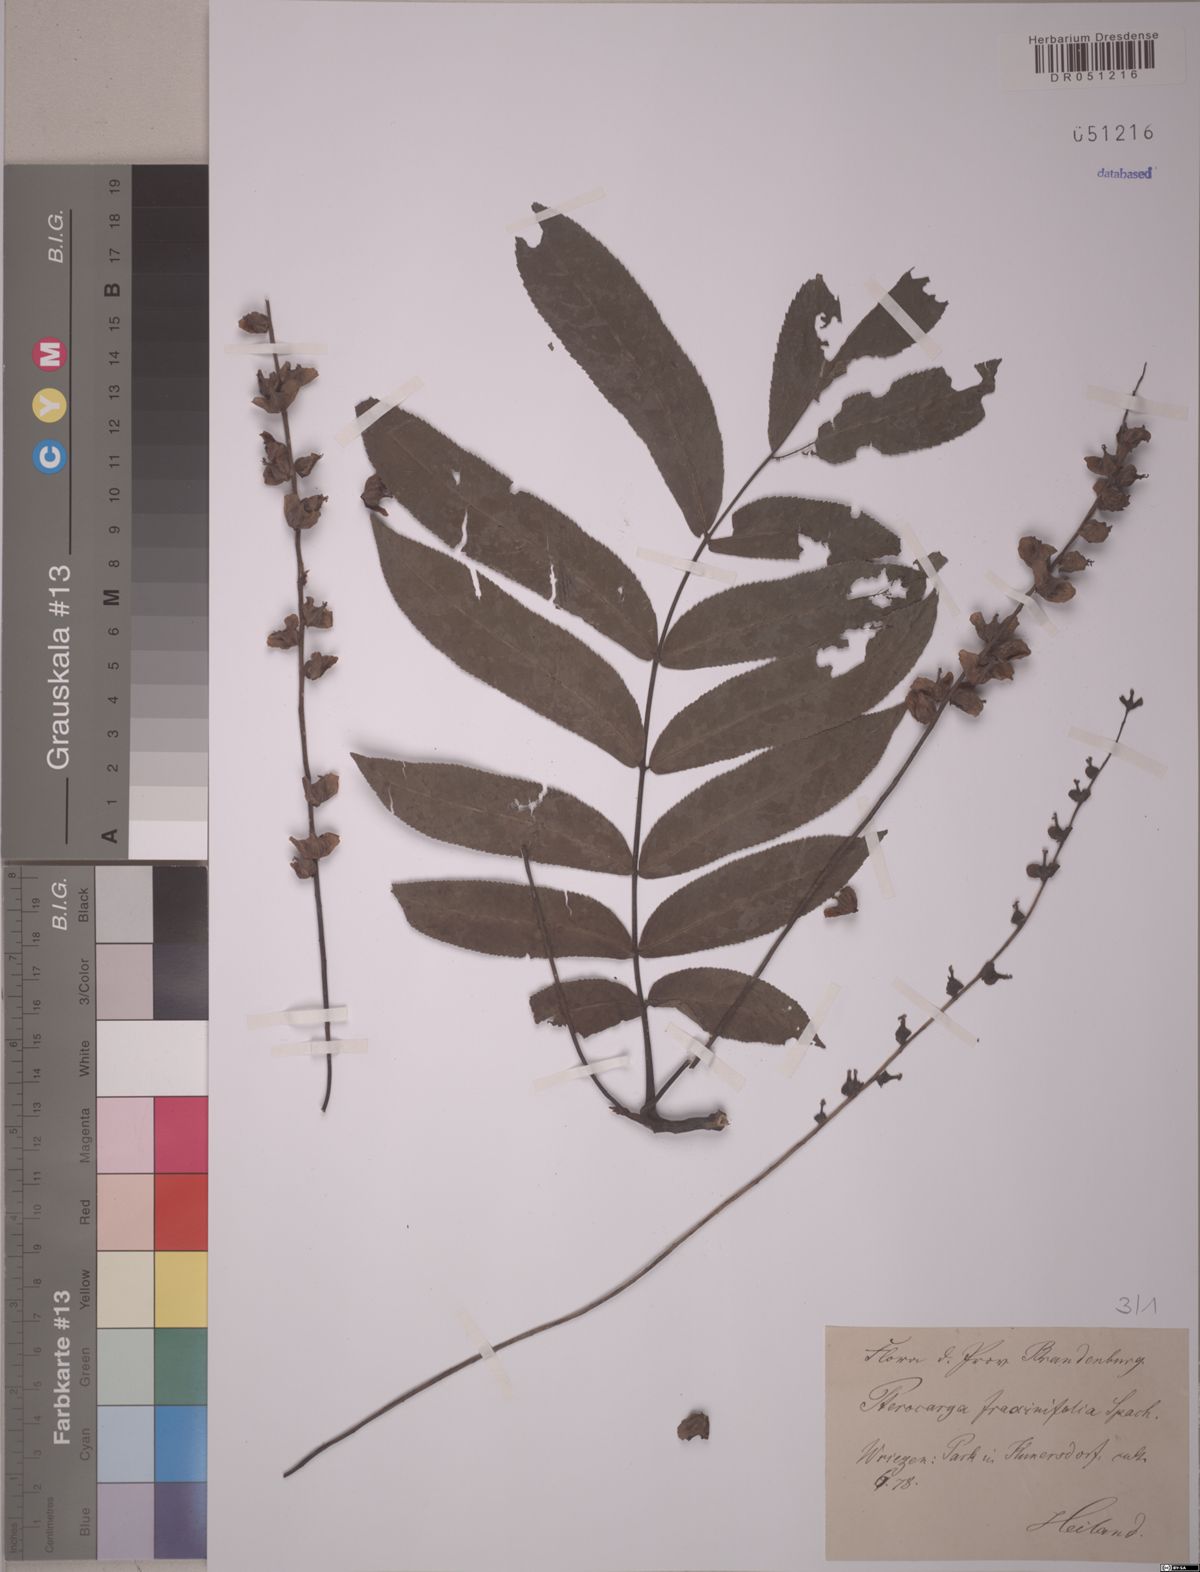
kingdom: Plantae
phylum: Tracheophyta
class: Magnoliopsida
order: Fagales
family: Juglandaceae
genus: Pterocarya
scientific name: Pterocarya fraxinifolia
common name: Caucasian wingnut
